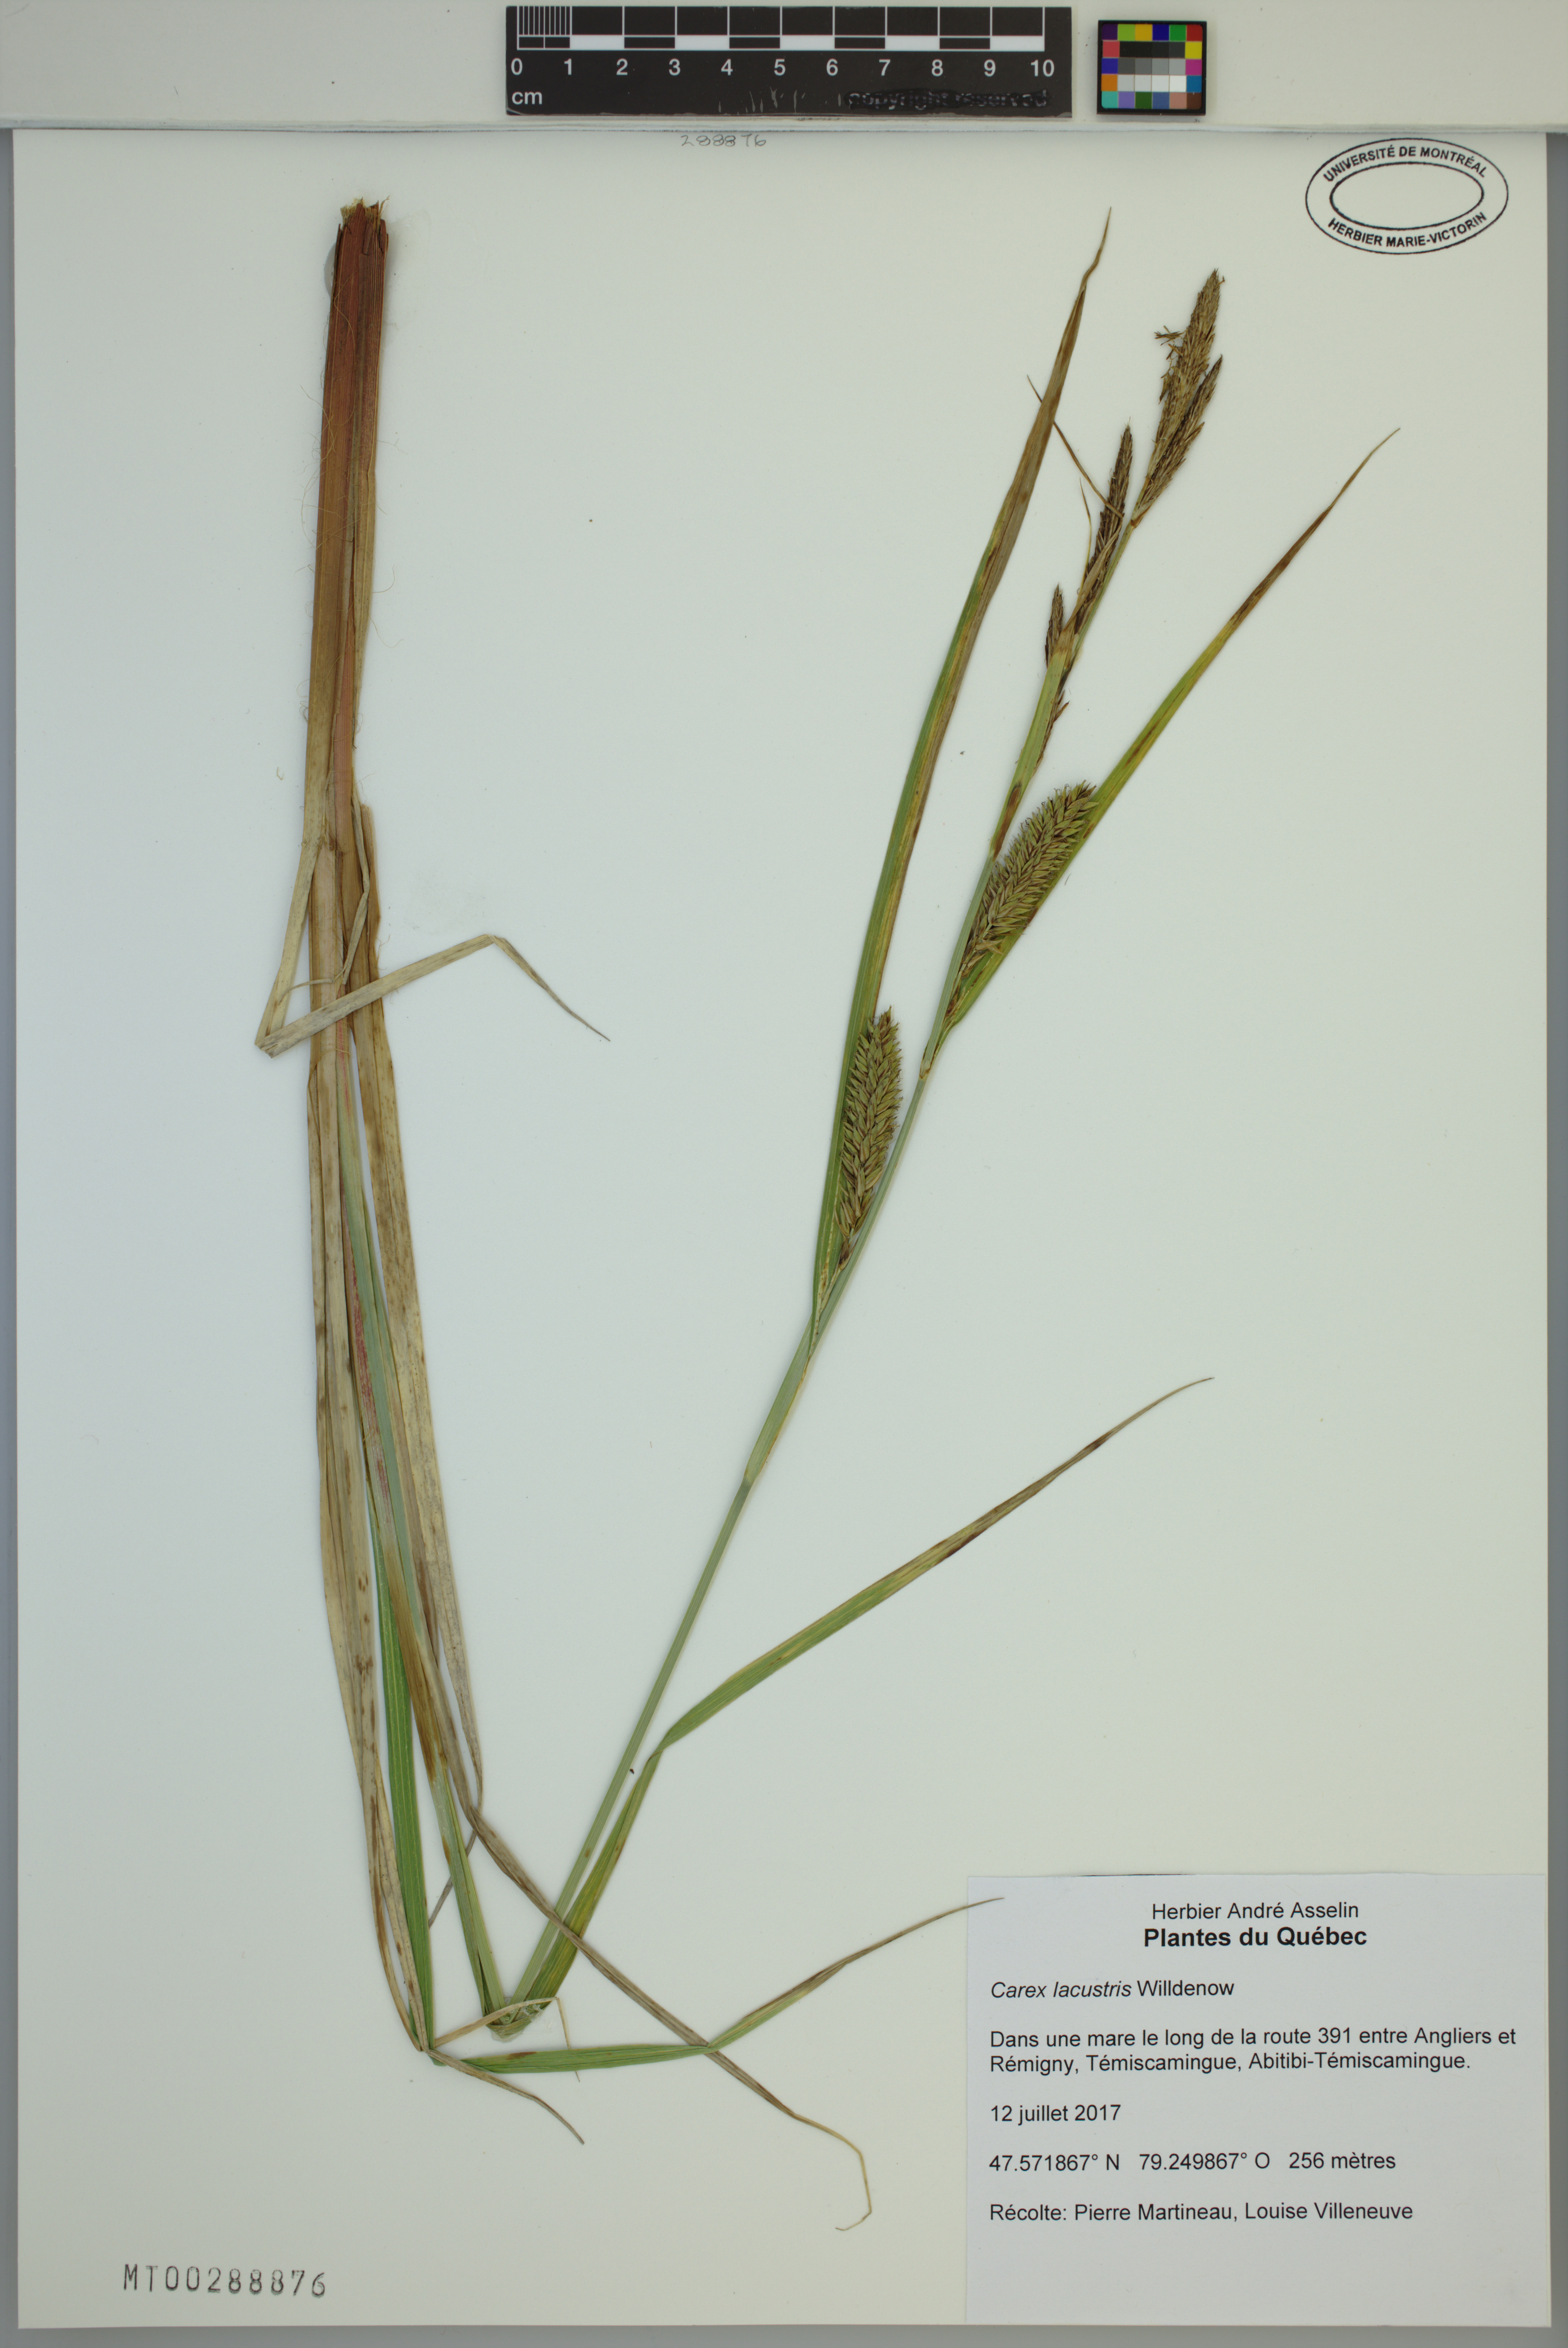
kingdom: Plantae
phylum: Tracheophyta
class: Liliopsida
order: Poales
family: Cyperaceae
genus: Carex
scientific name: Carex lacustris
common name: Common lake sedge
